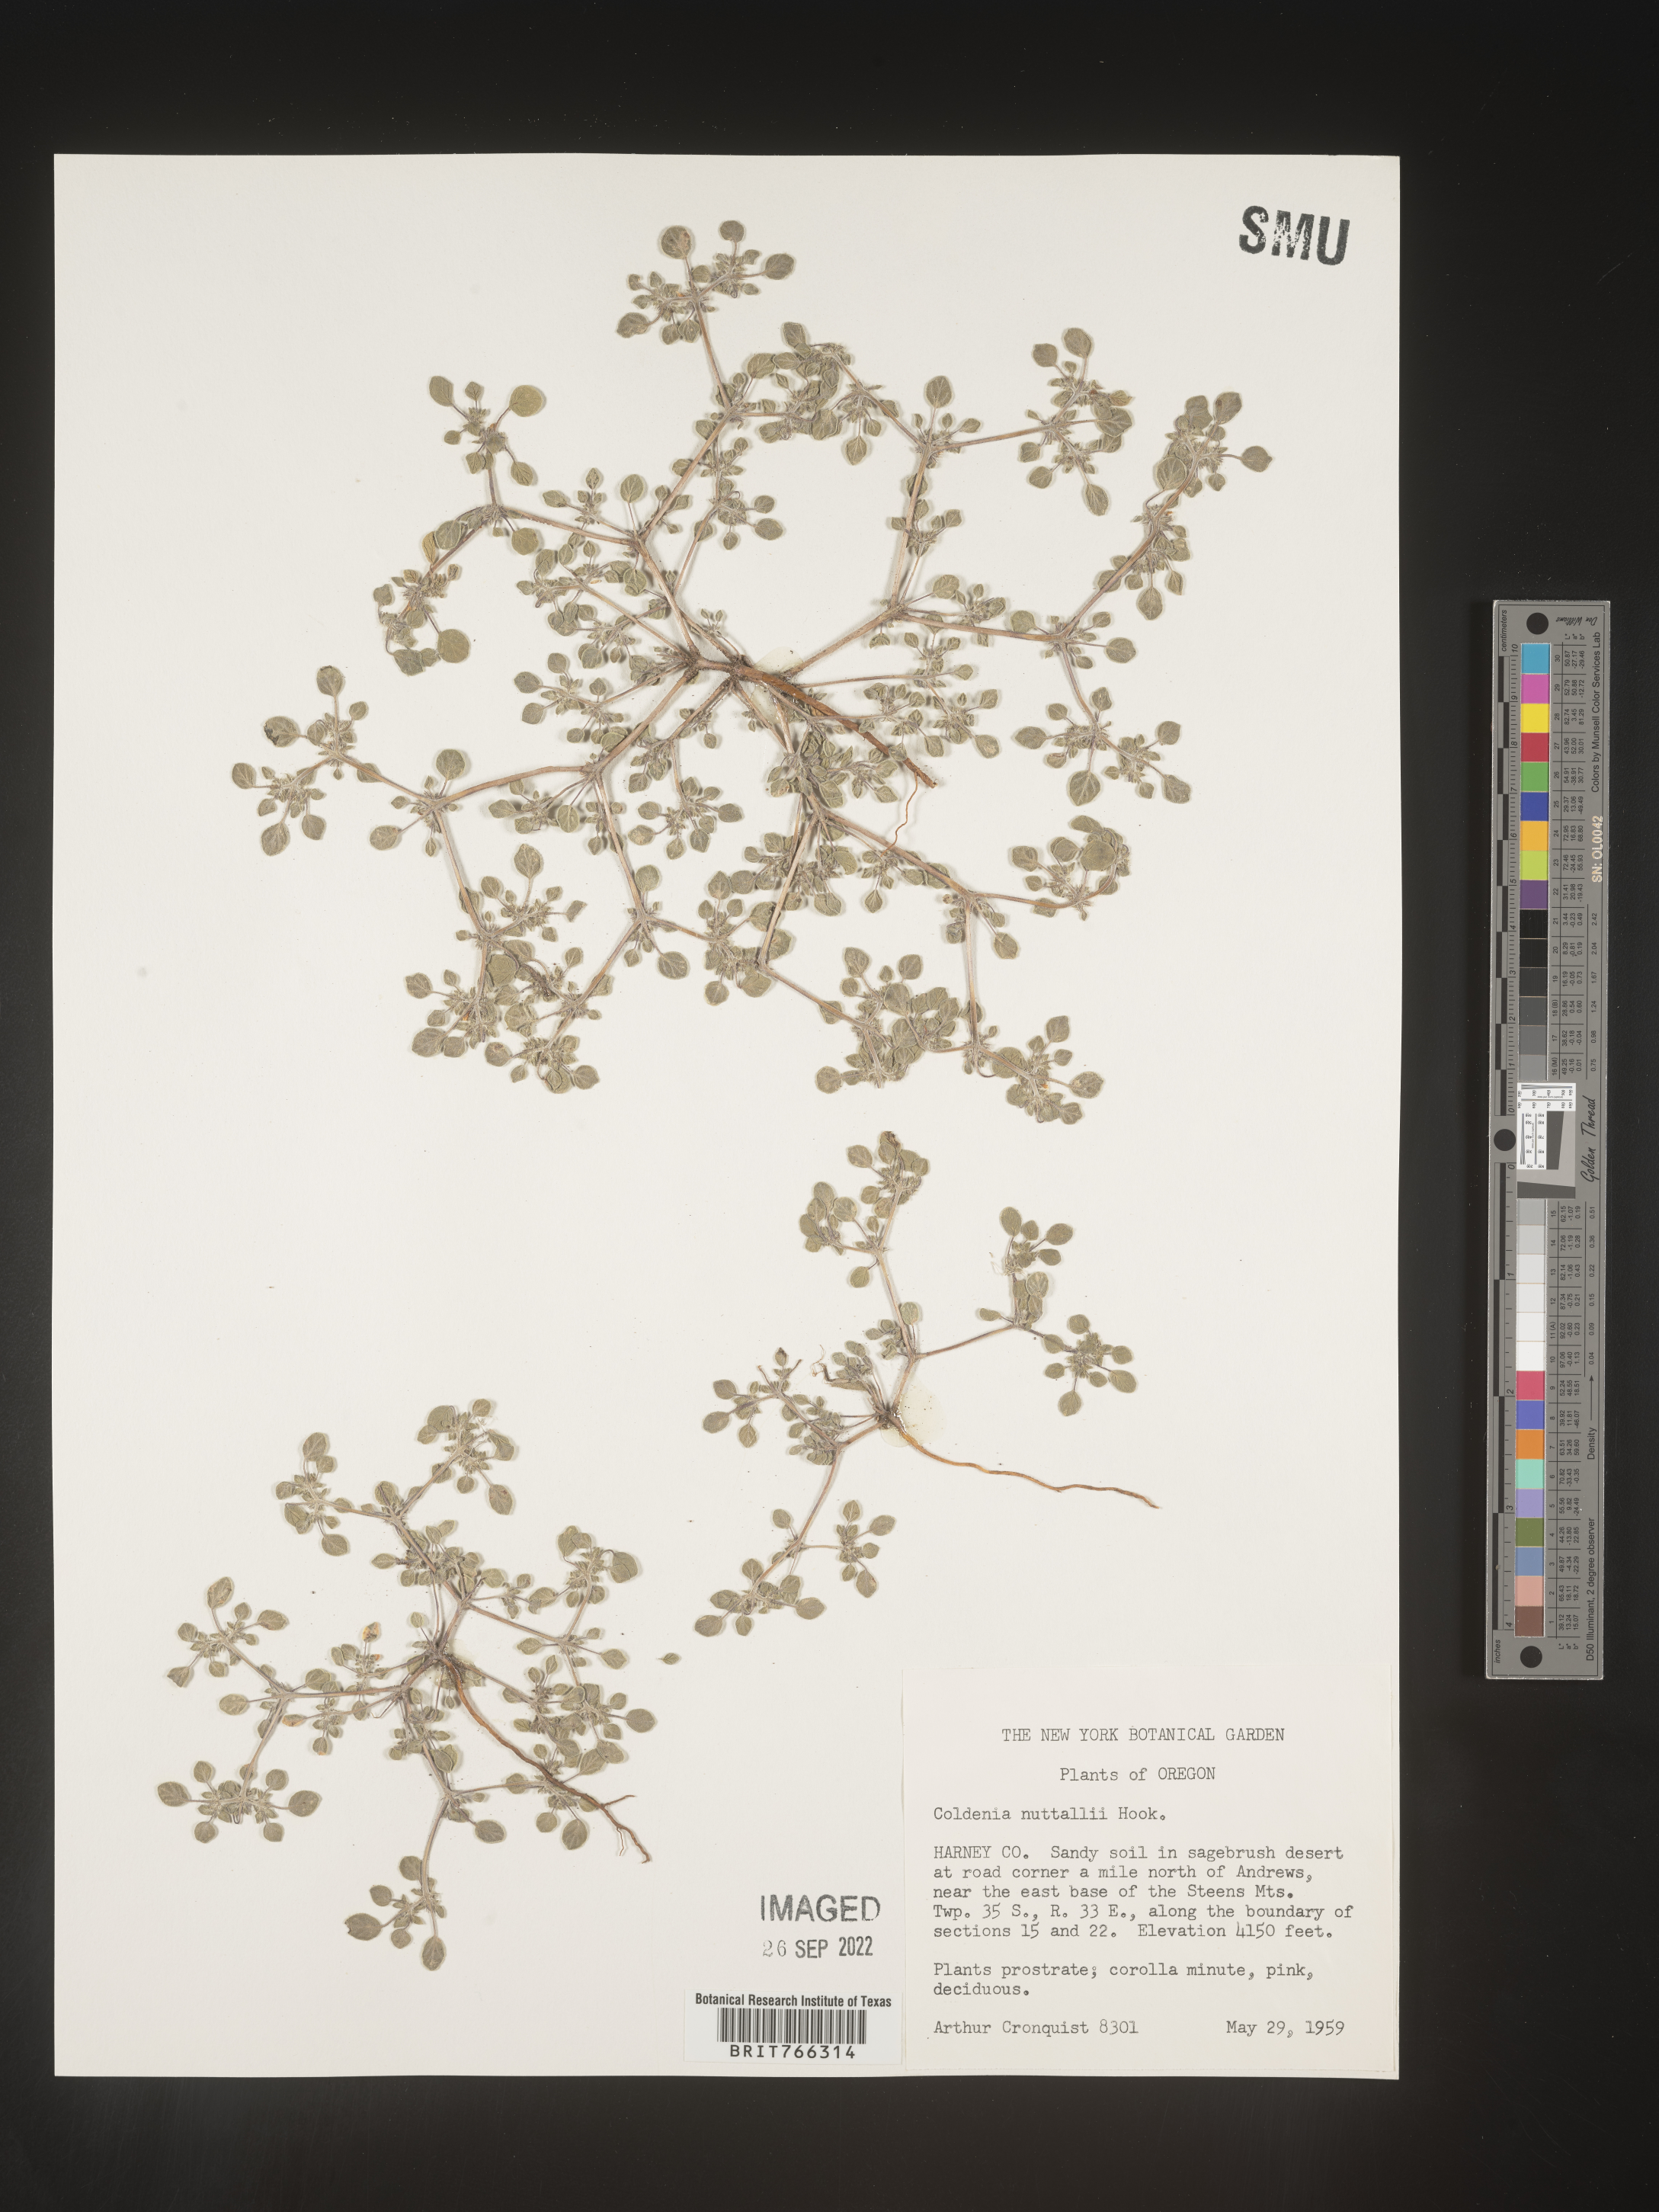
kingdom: Plantae
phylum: Tracheophyta
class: Magnoliopsida
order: Boraginales
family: Coldeniaceae
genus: Coldenia
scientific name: Coldenia
